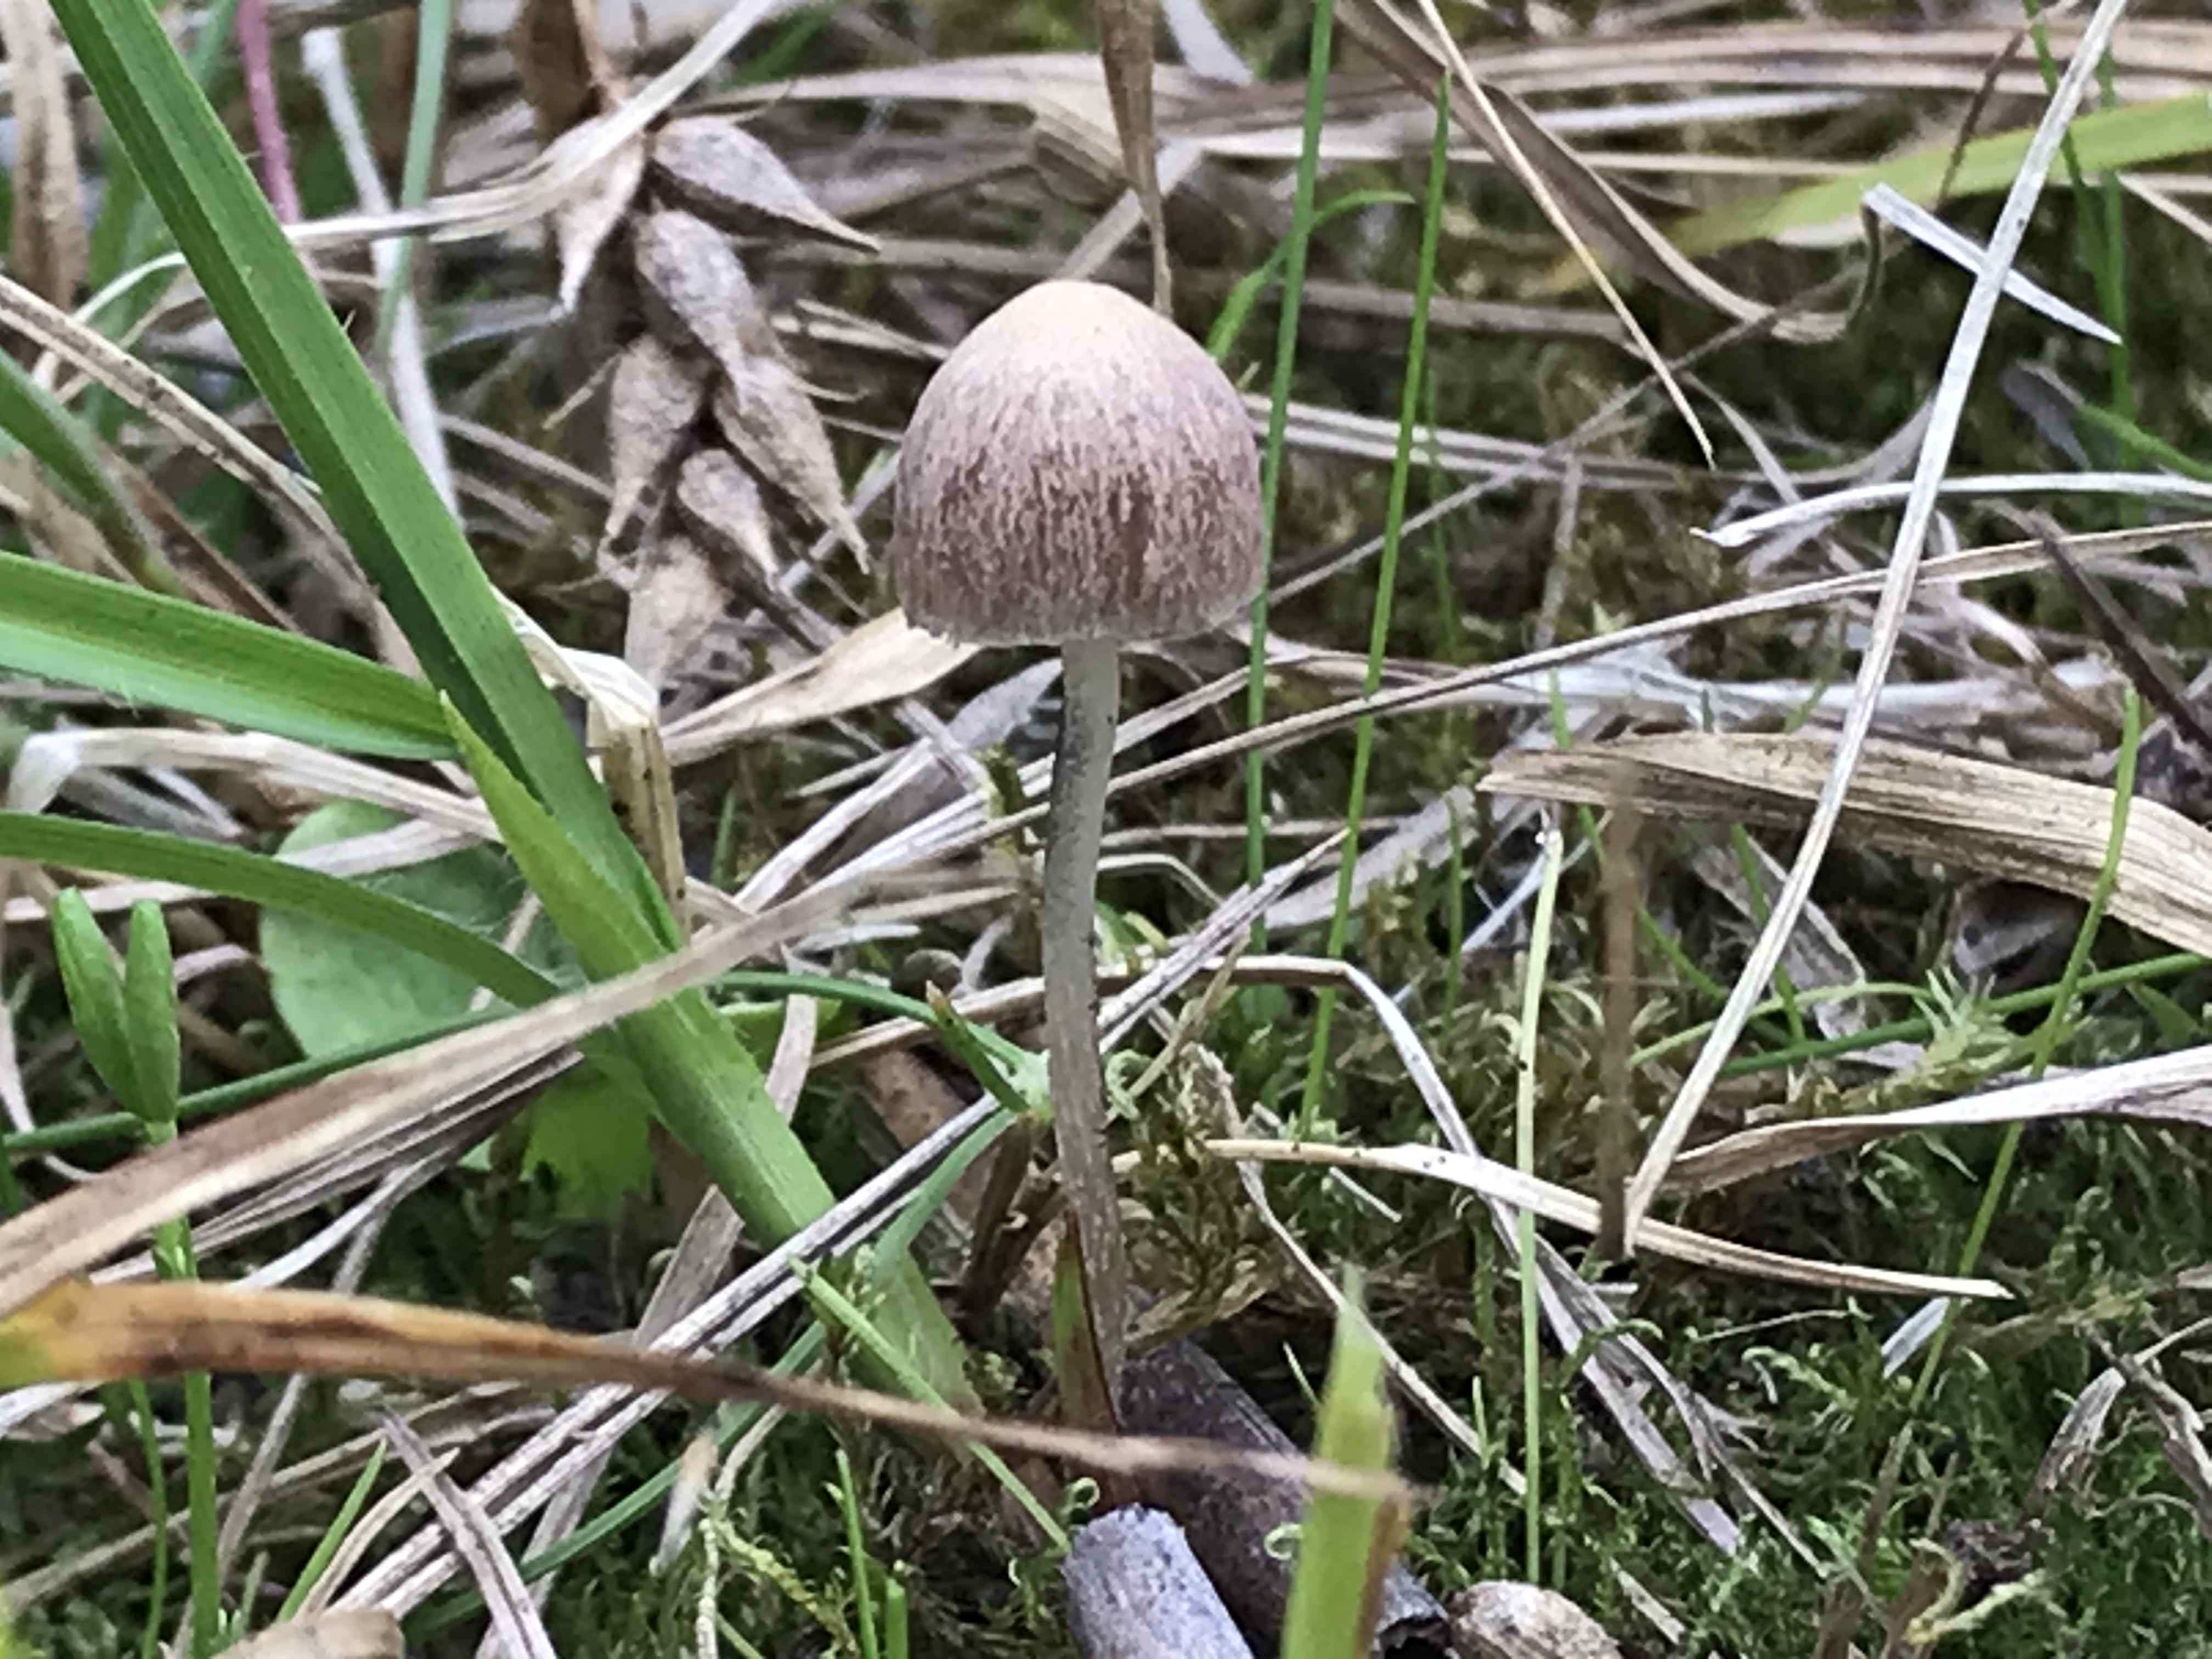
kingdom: Fungi
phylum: Basidiomycota
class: Agaricomycetes
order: Agaricales
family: Psathyrellaceae
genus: Psathyrella
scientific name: Psathyrella
